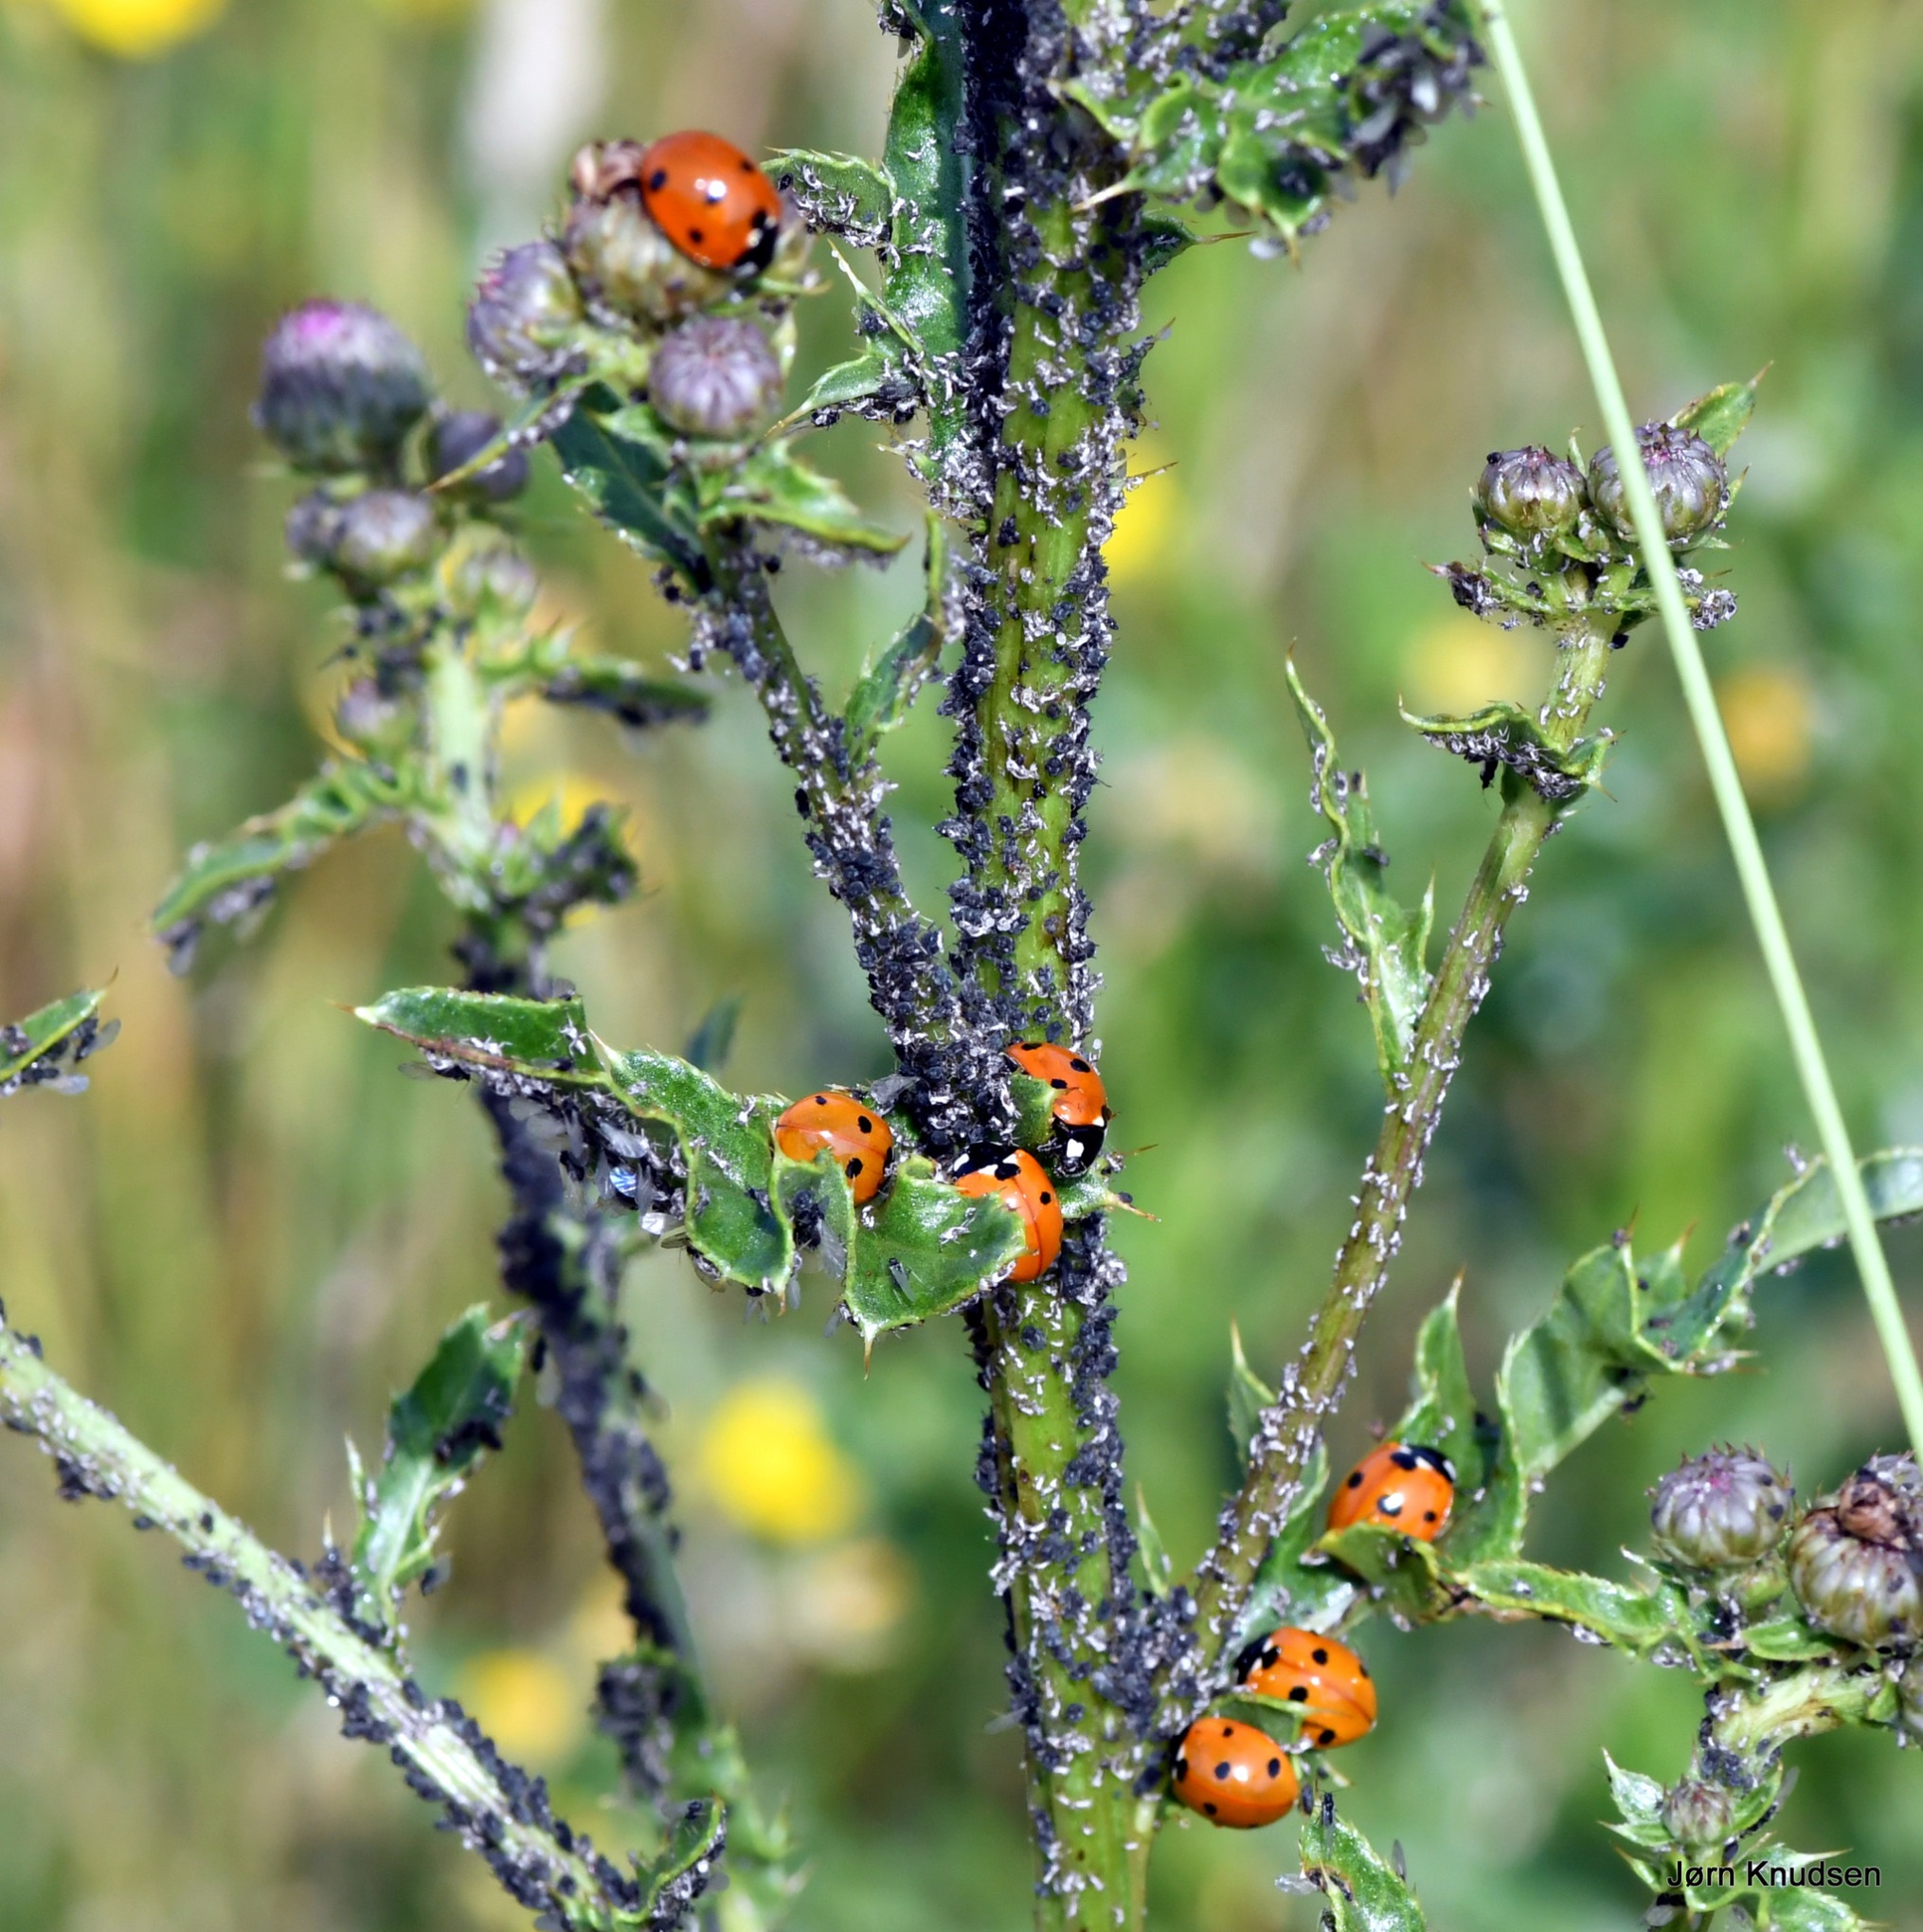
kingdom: Animalia
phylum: Arthropoda
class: Insecta
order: Coleoptera
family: Coccinellidae
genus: Coccinella
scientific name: Coccinella septempunctata
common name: Syvplettet mariehøne
